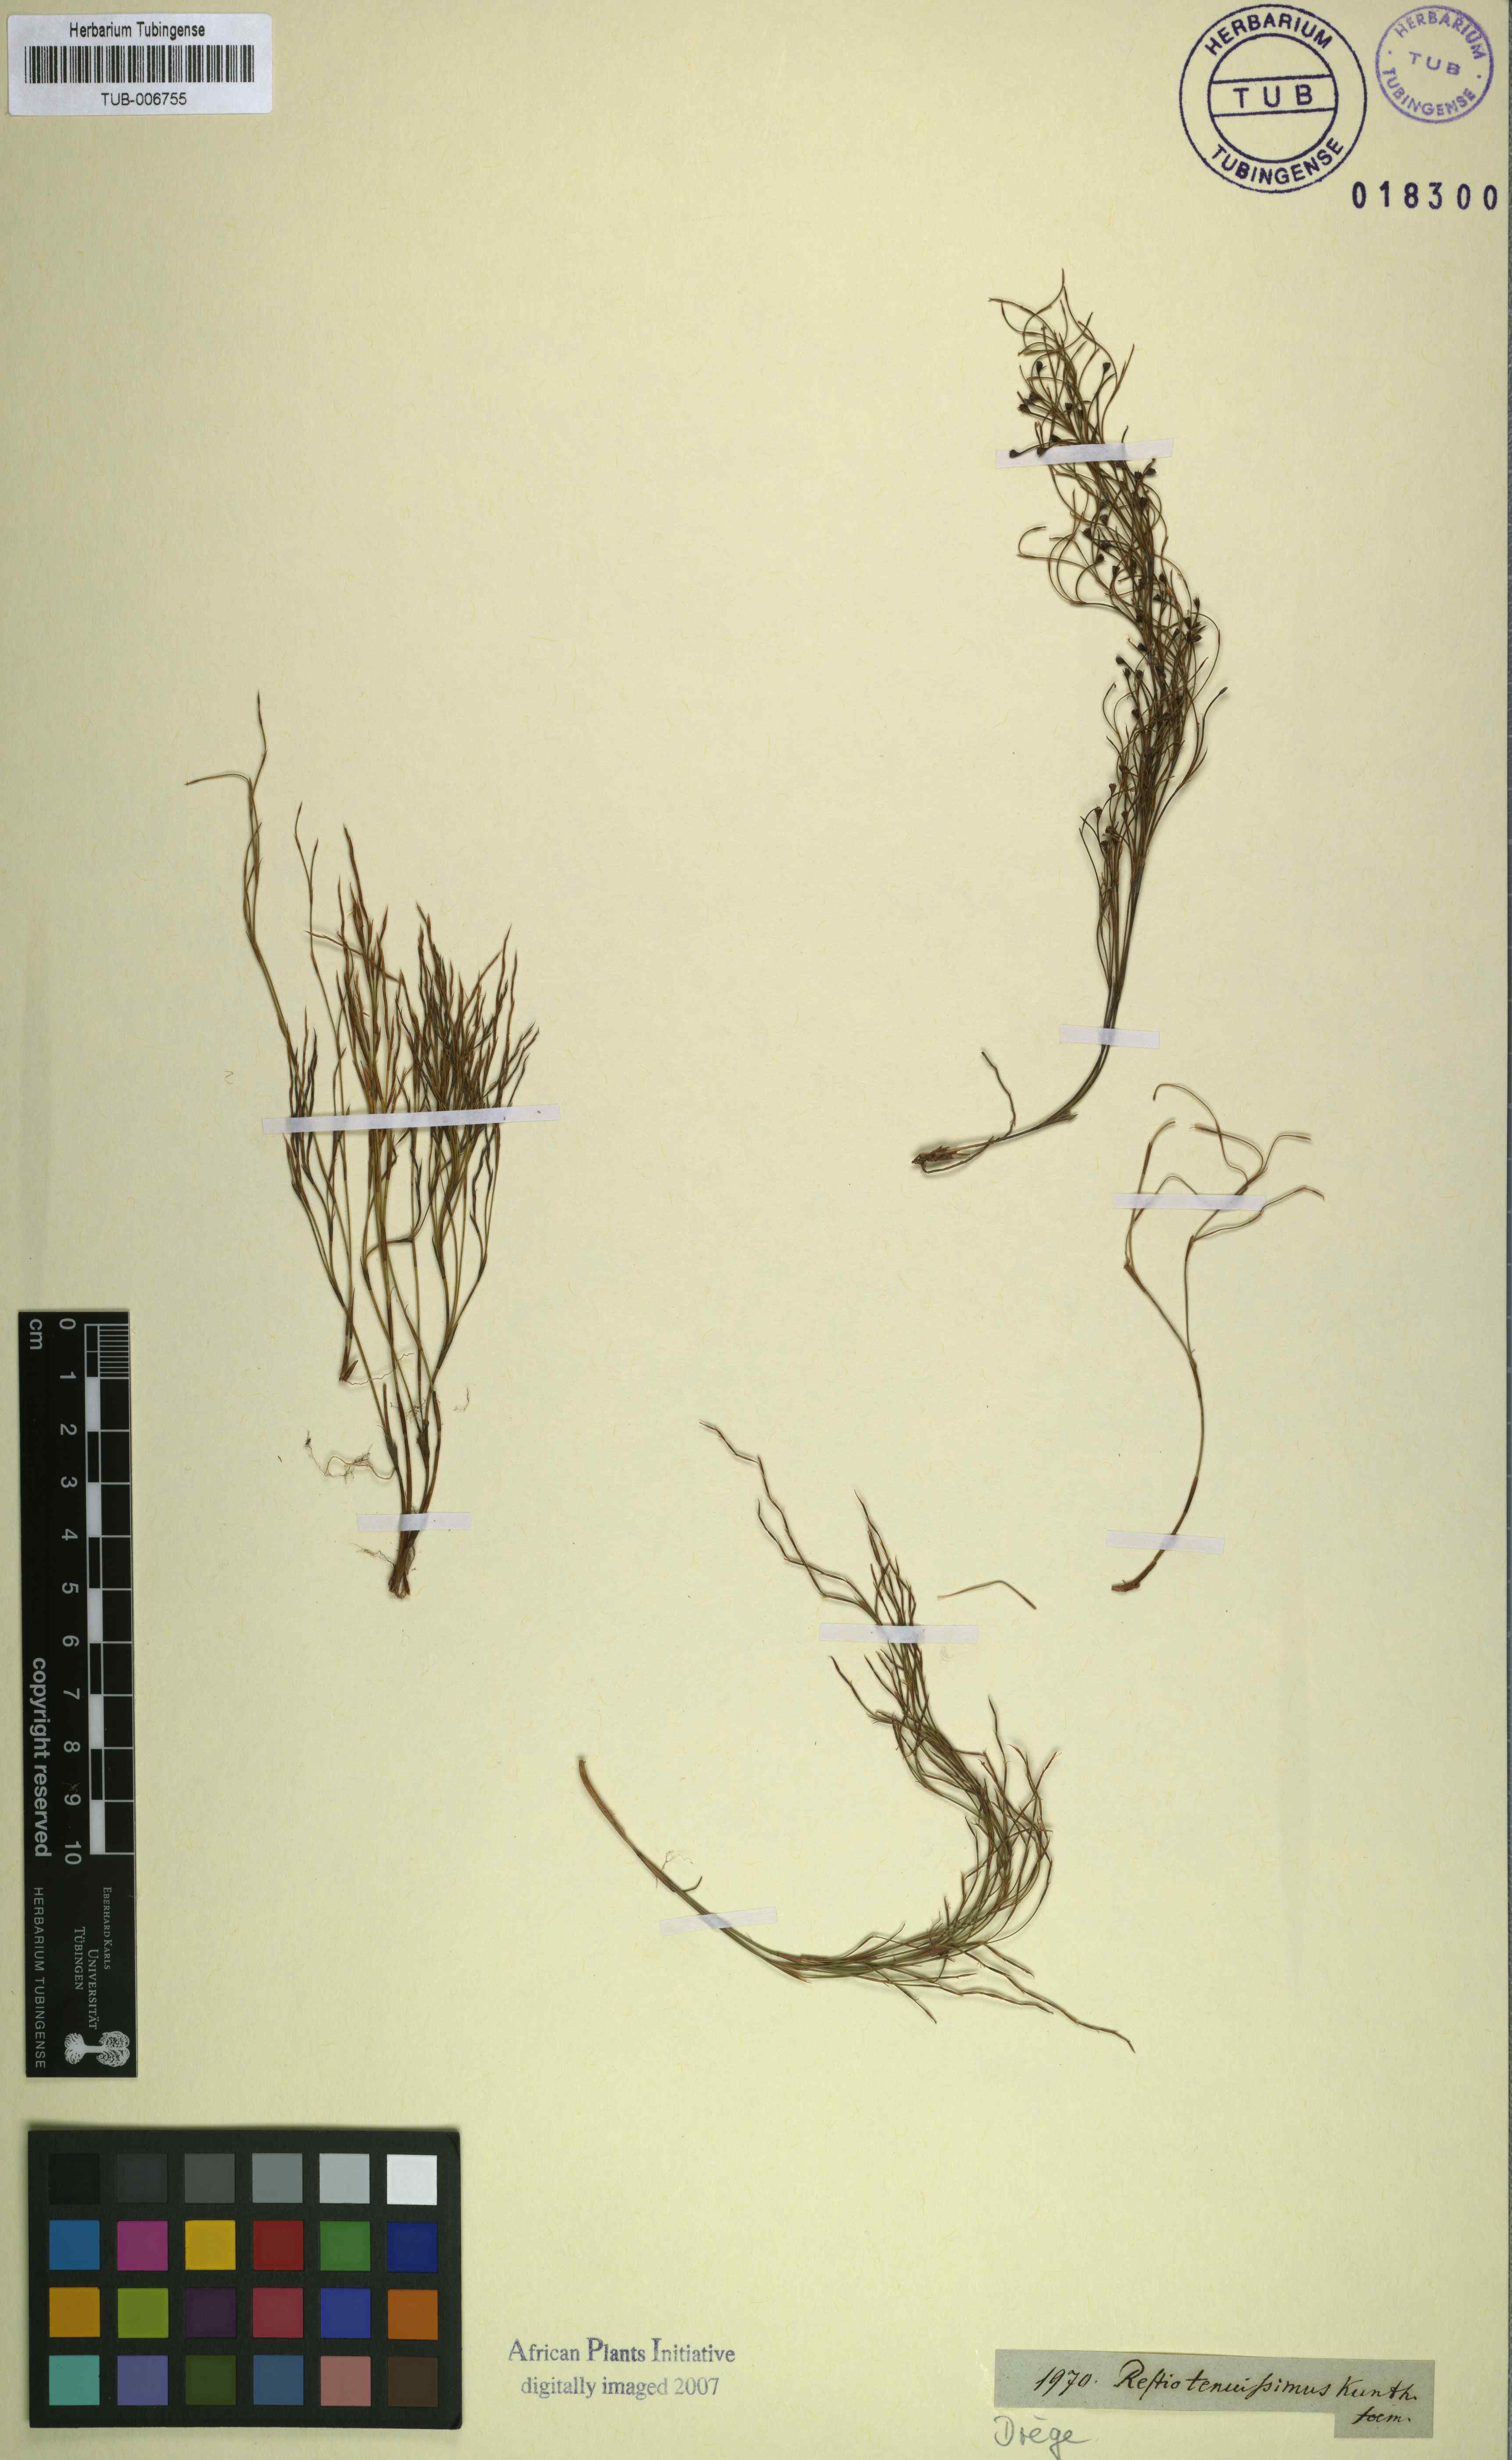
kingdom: Plantae
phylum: Tracheophyta
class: Liliopsida
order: Poales
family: Restionaceae
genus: Restio
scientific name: Restio tenuissimus
